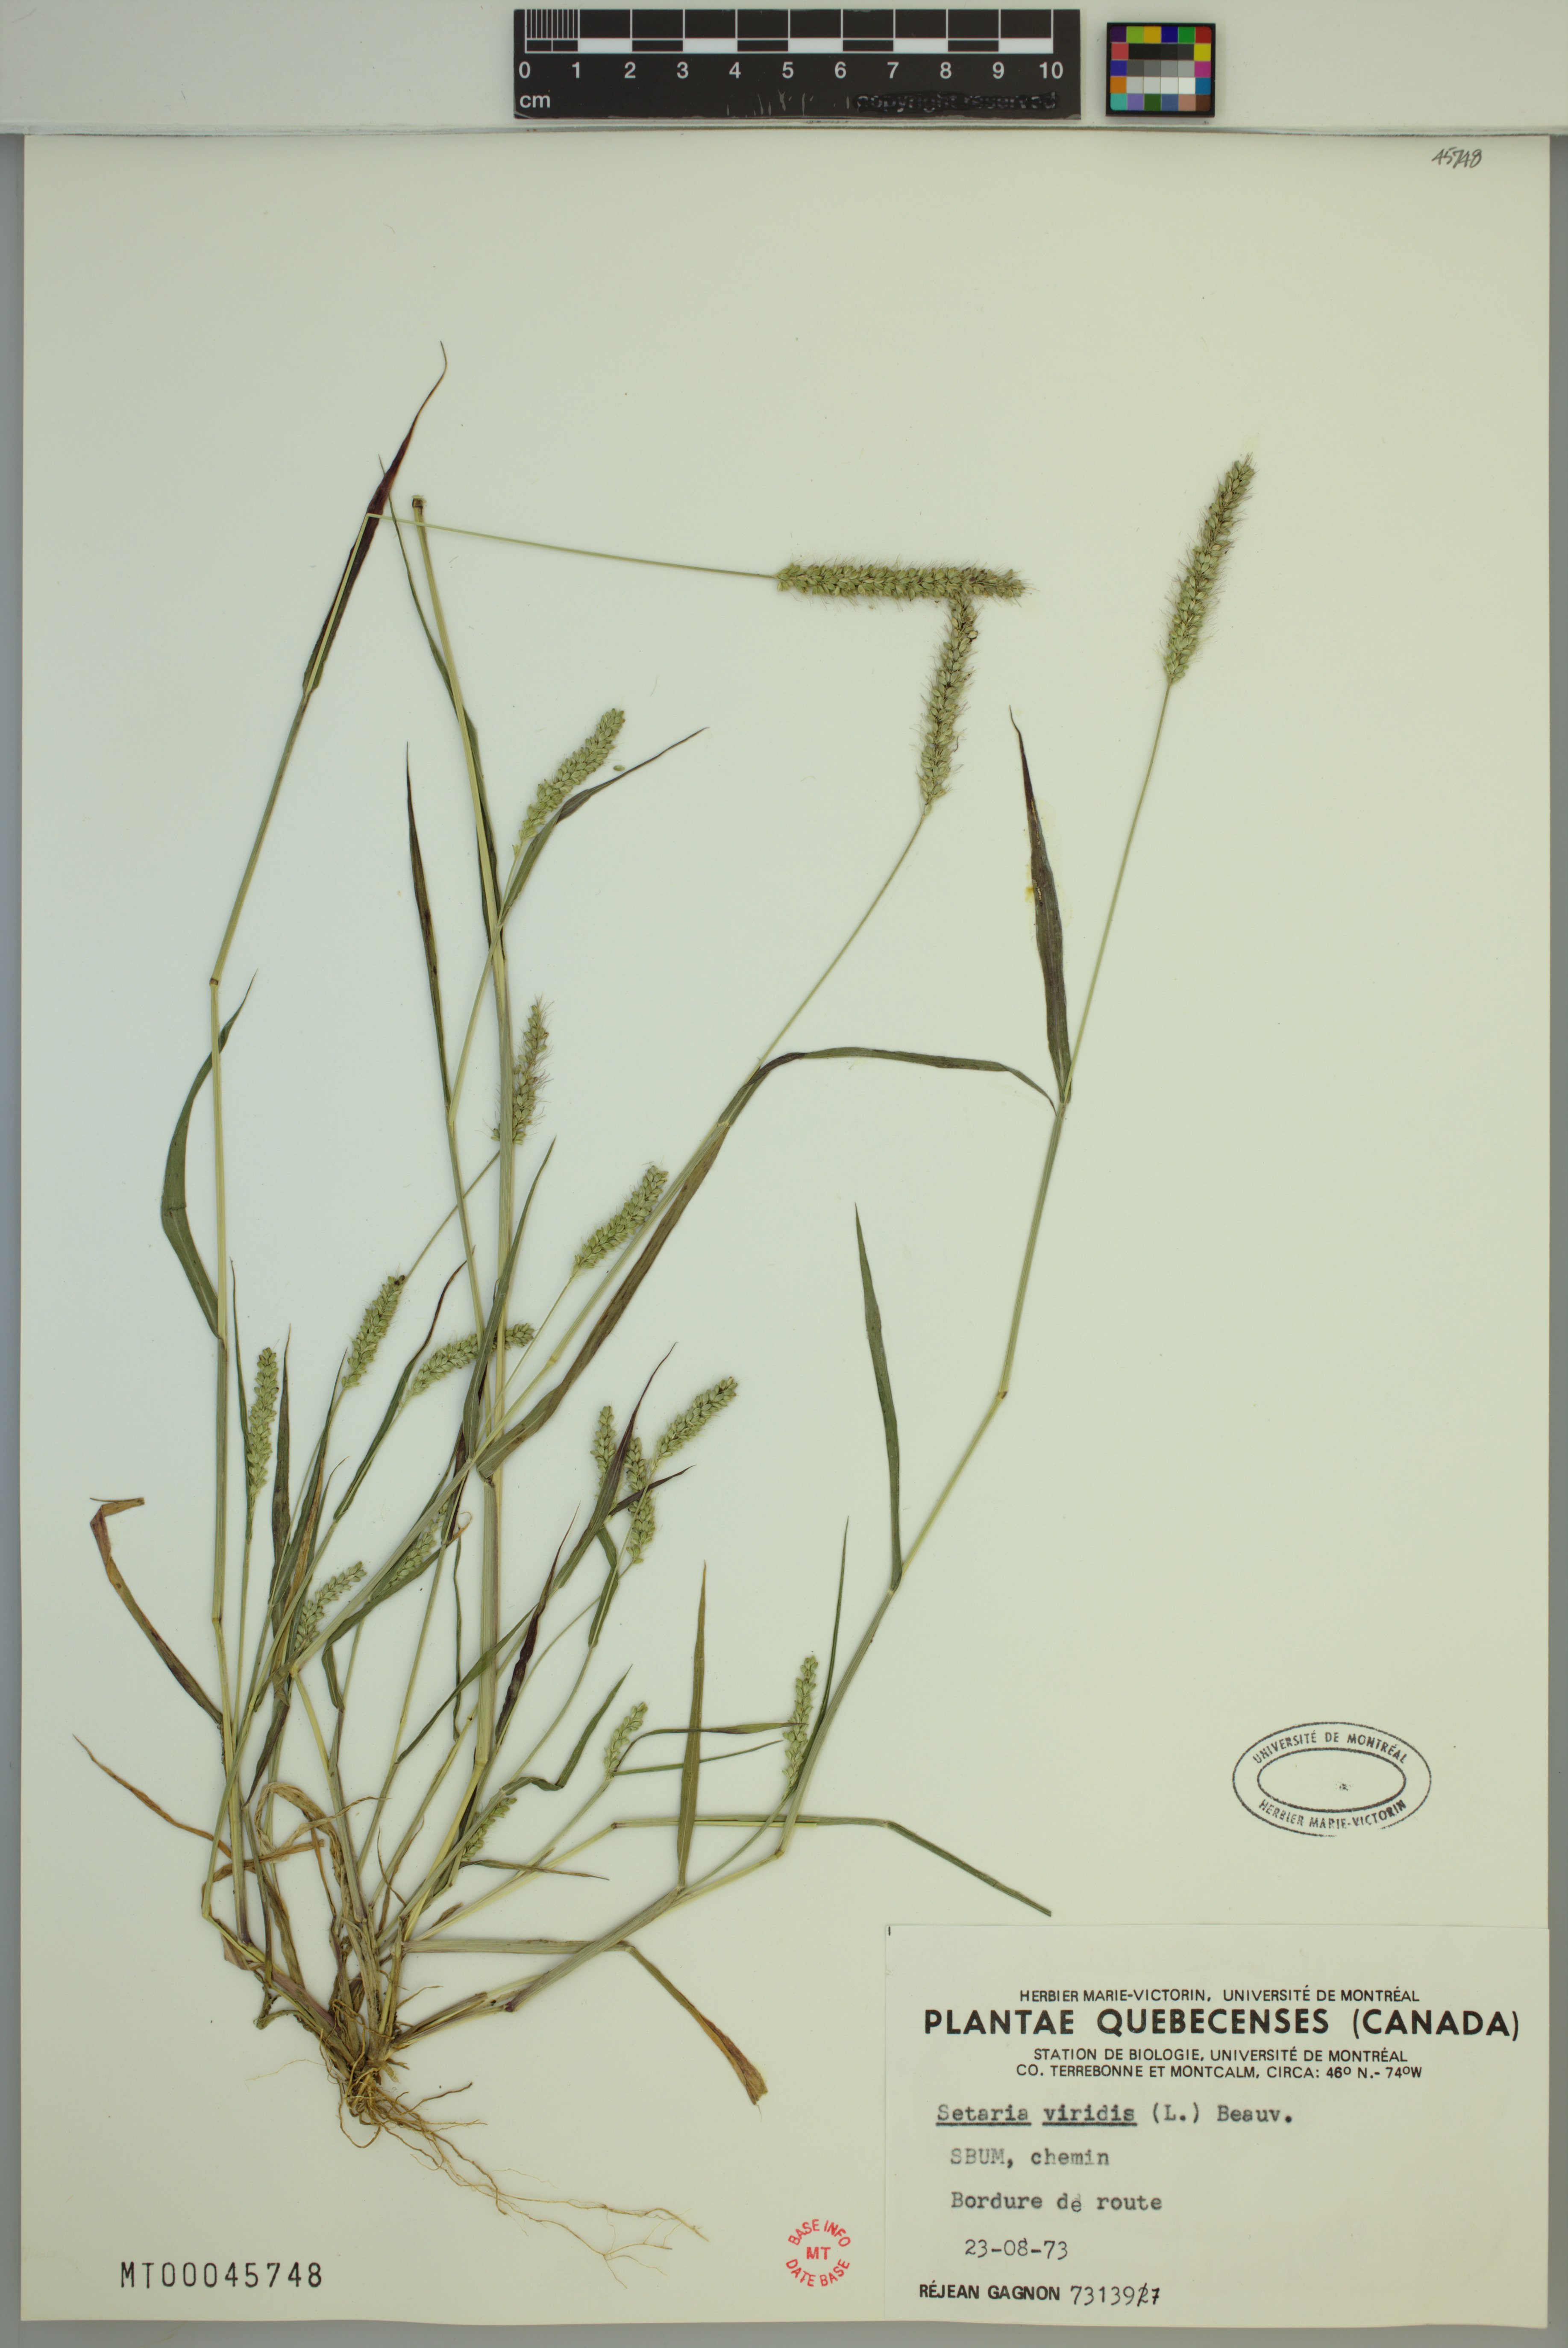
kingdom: Plantae
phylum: Tracheophyta
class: Liliopsida
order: Poales
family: Poaceae
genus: Setaria
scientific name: Setaria viridis
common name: Green bristlegrass
